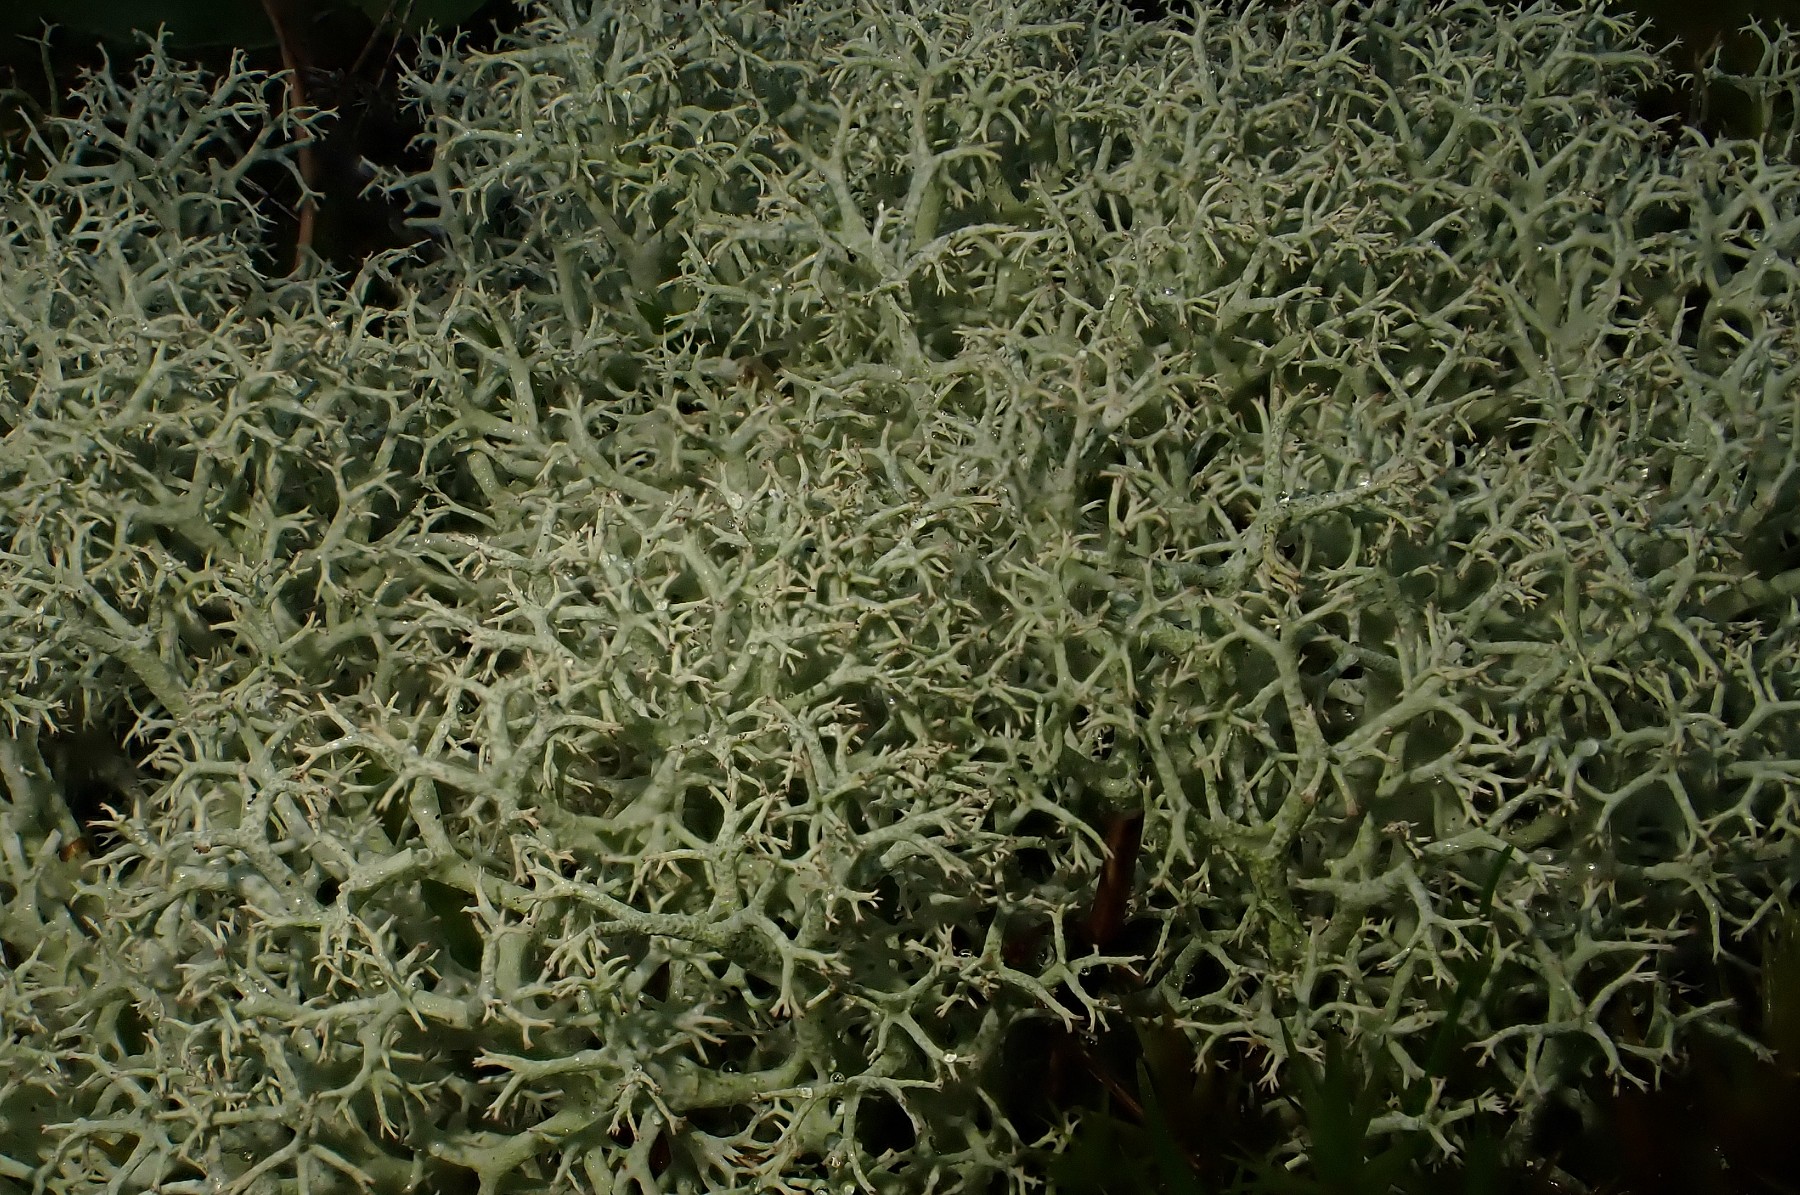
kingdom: Fungi
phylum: Ascomycota
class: Lecanoromycetes
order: Lecanorales
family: Cladoniaceae
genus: Cladonia
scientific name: Cladonia portentosa
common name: hede-rensdyrlav
